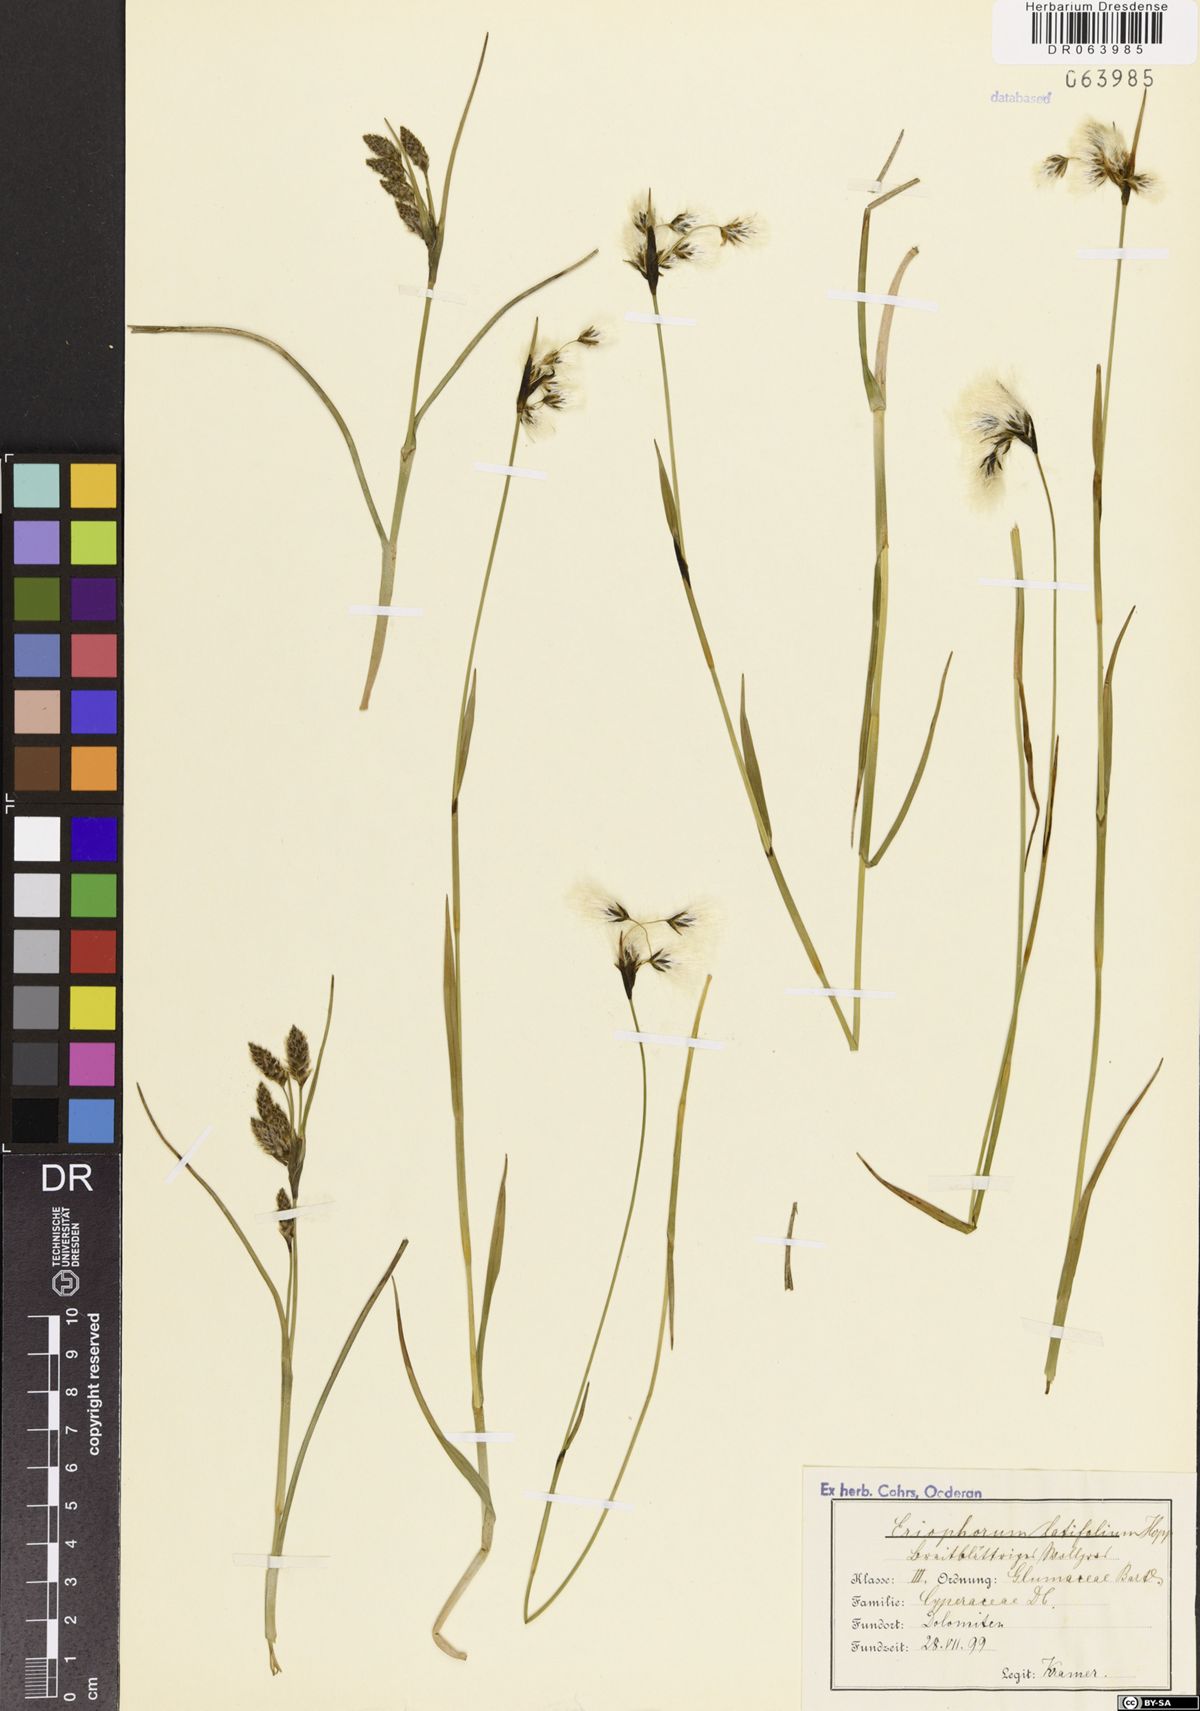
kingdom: Plantae
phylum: Tracheophyta
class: Liliopsida
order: Poales
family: Cyperaceae
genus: Eriophorum
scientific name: Eriophorum latifolium
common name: Broad-leaved cottongrass
